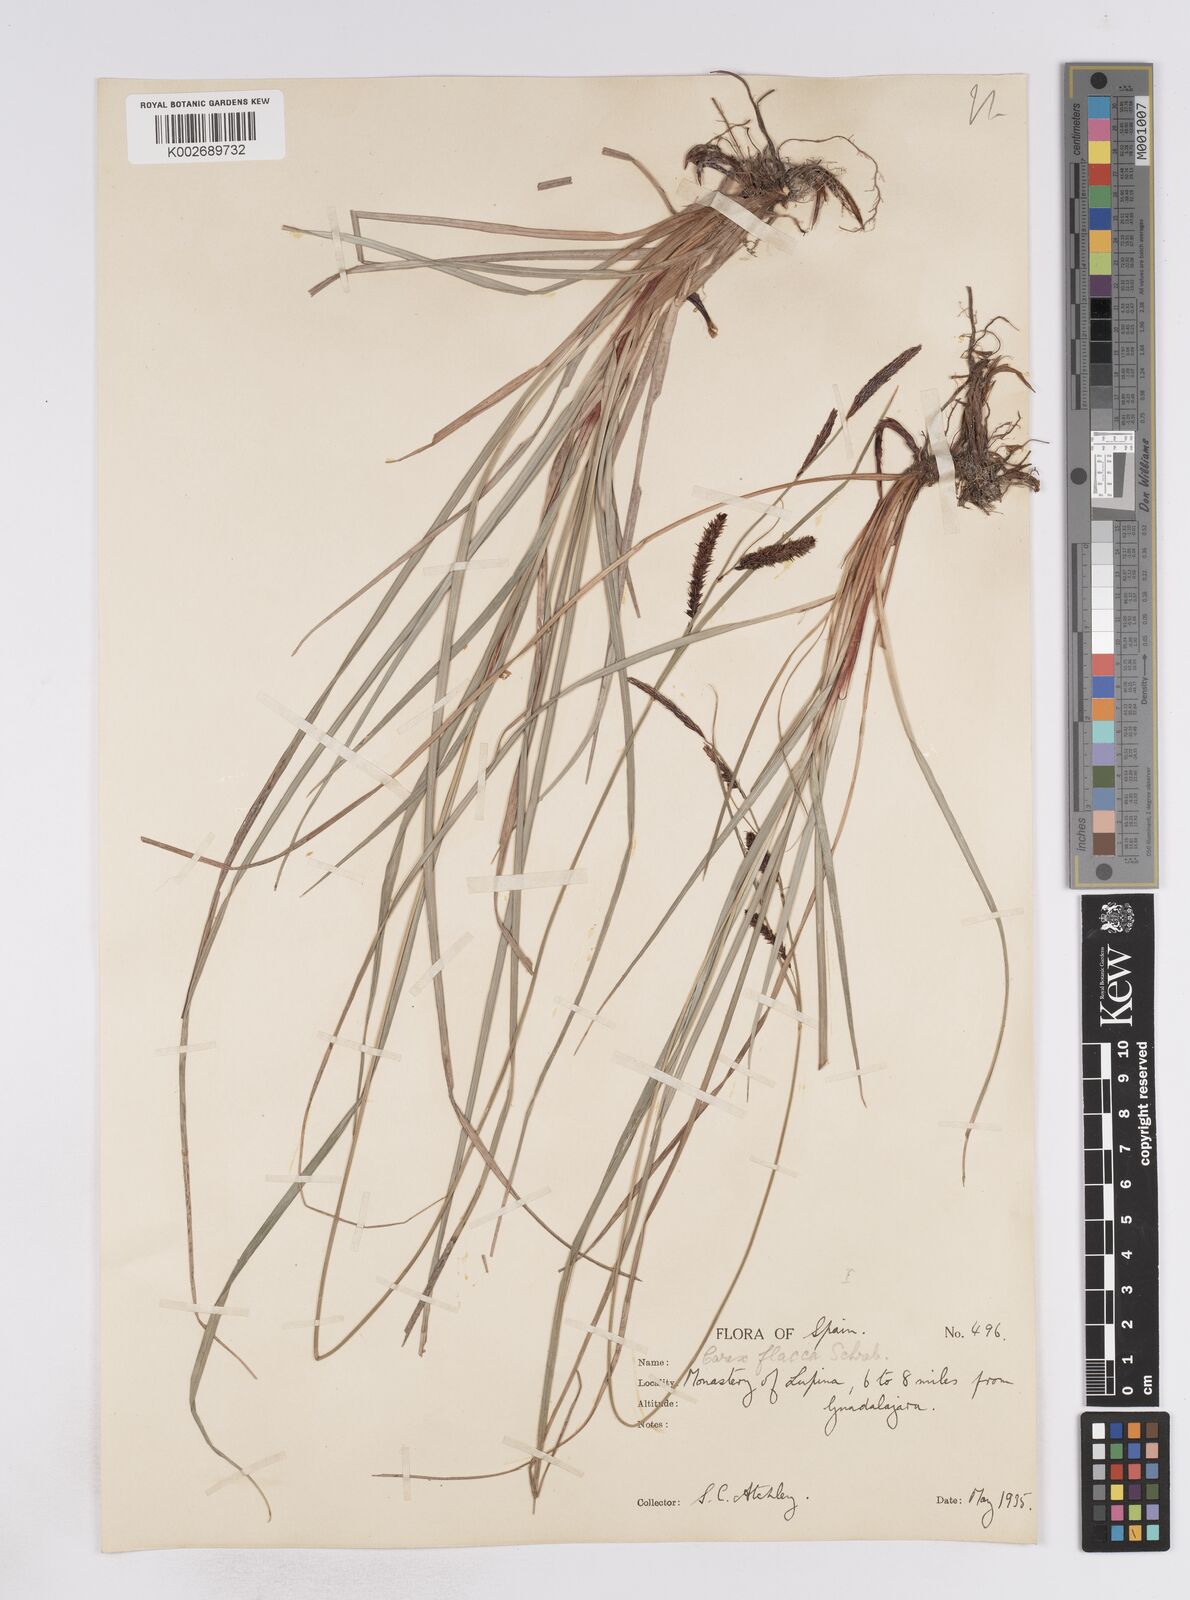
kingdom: Plantae
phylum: Tracheophyta
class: Liliopsida
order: Poales
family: Cyperaceae
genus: Carex
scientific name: Carex flacca
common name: Glaucous sedge
